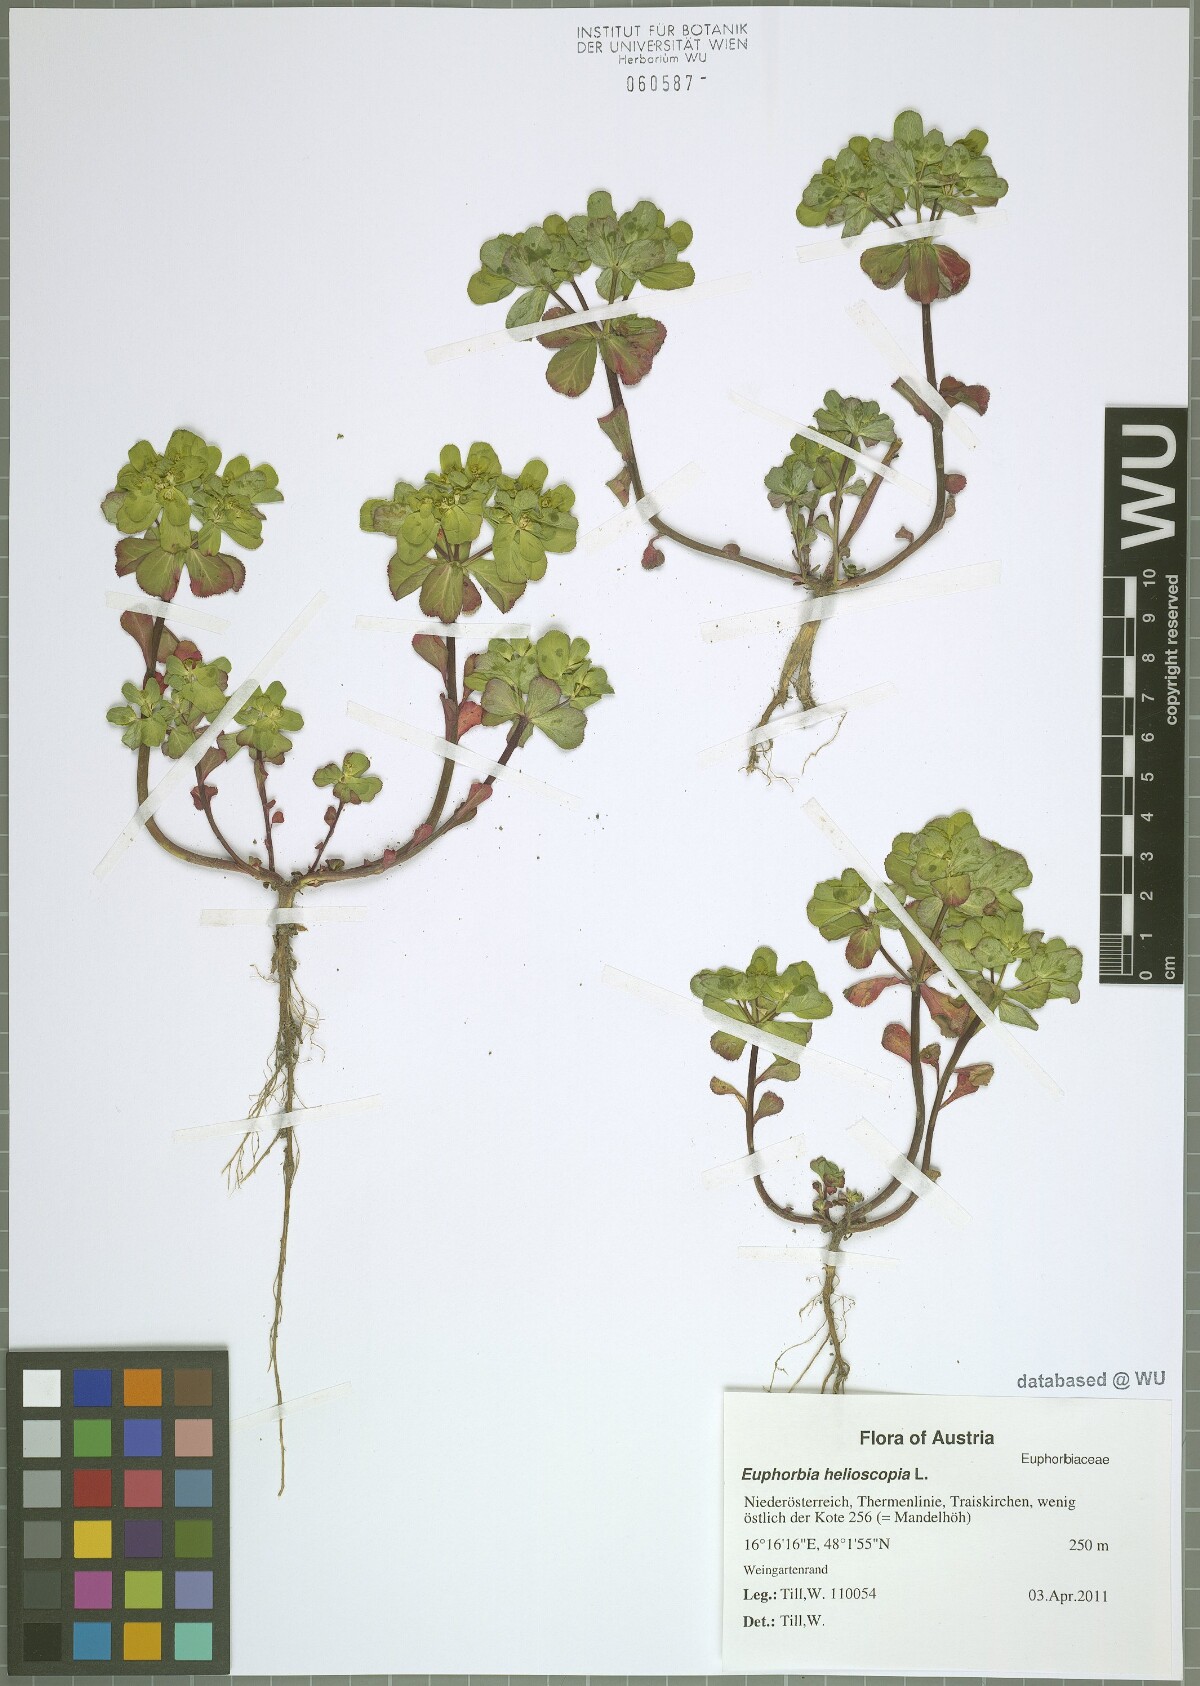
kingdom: Plantae
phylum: Tracheophyta
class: Magnoliopsida
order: Malpighiales
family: Euphorbiaceae
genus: Euphorbia
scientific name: Euphorbia helioscopia
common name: Sun spurge
